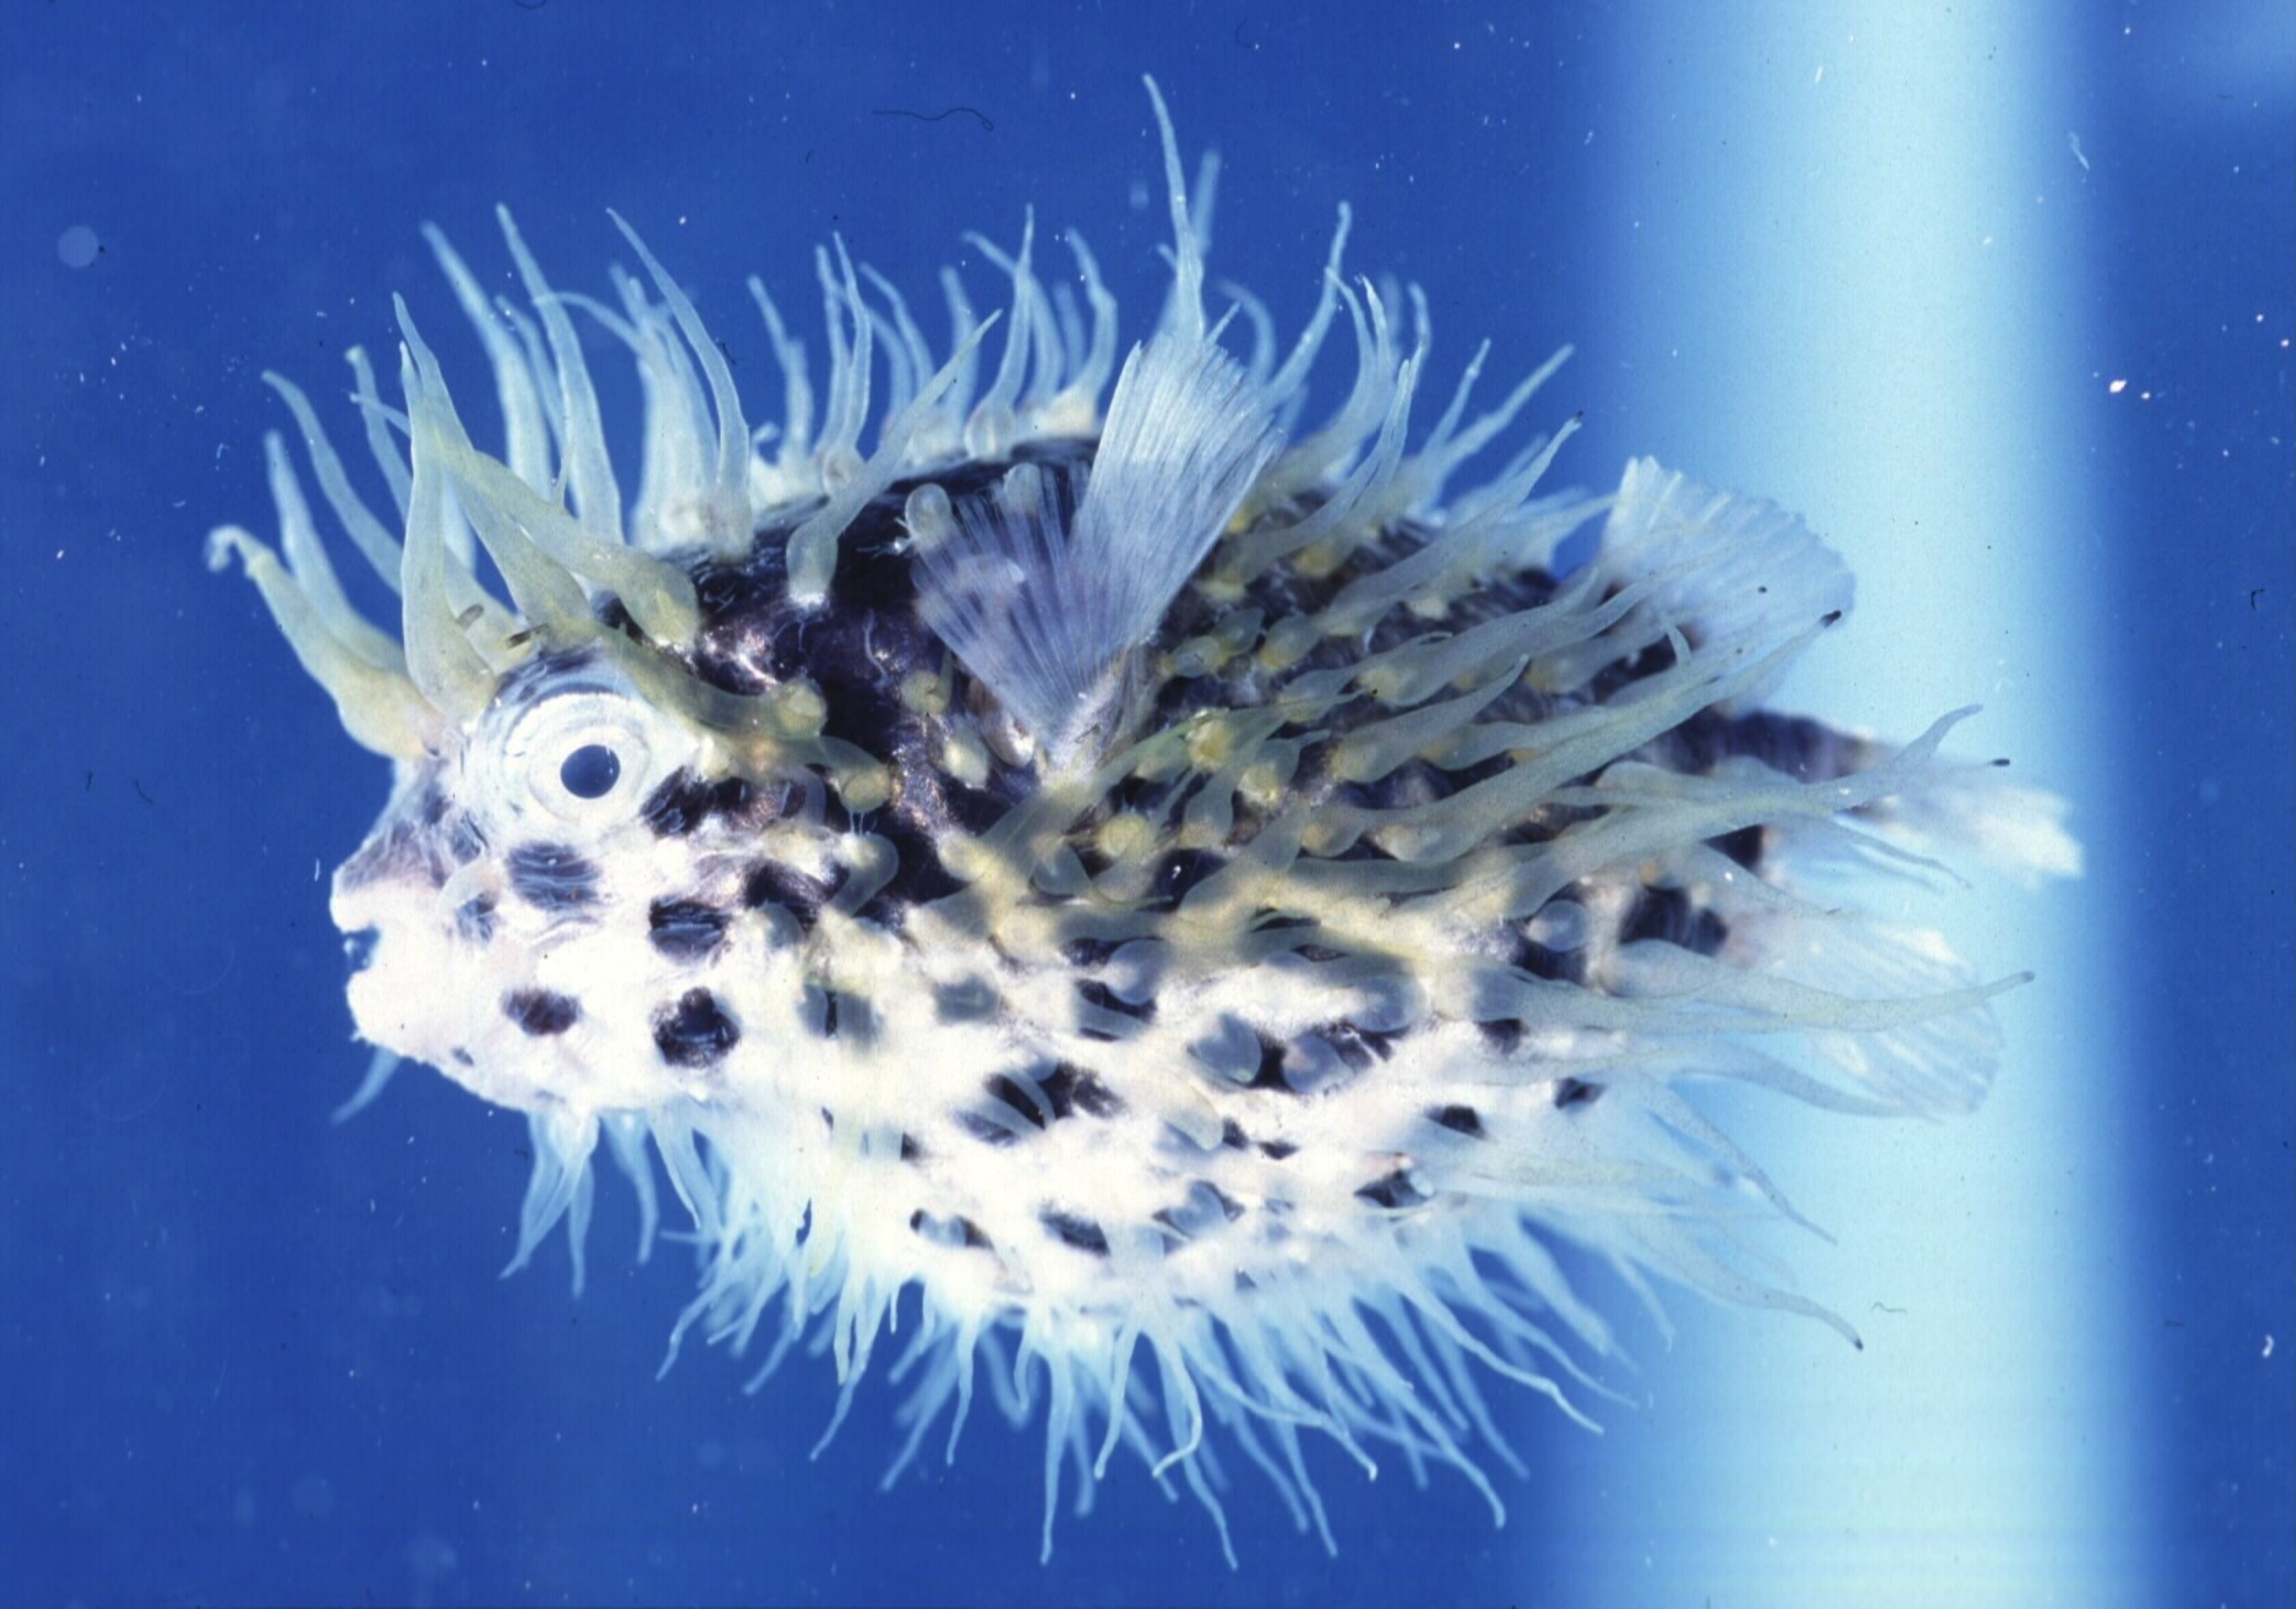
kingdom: Animalia
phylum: Chordata
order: Tetraodontiformes
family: Diodontidae
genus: Cyclichthys
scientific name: Cyclichthys spilostylus
